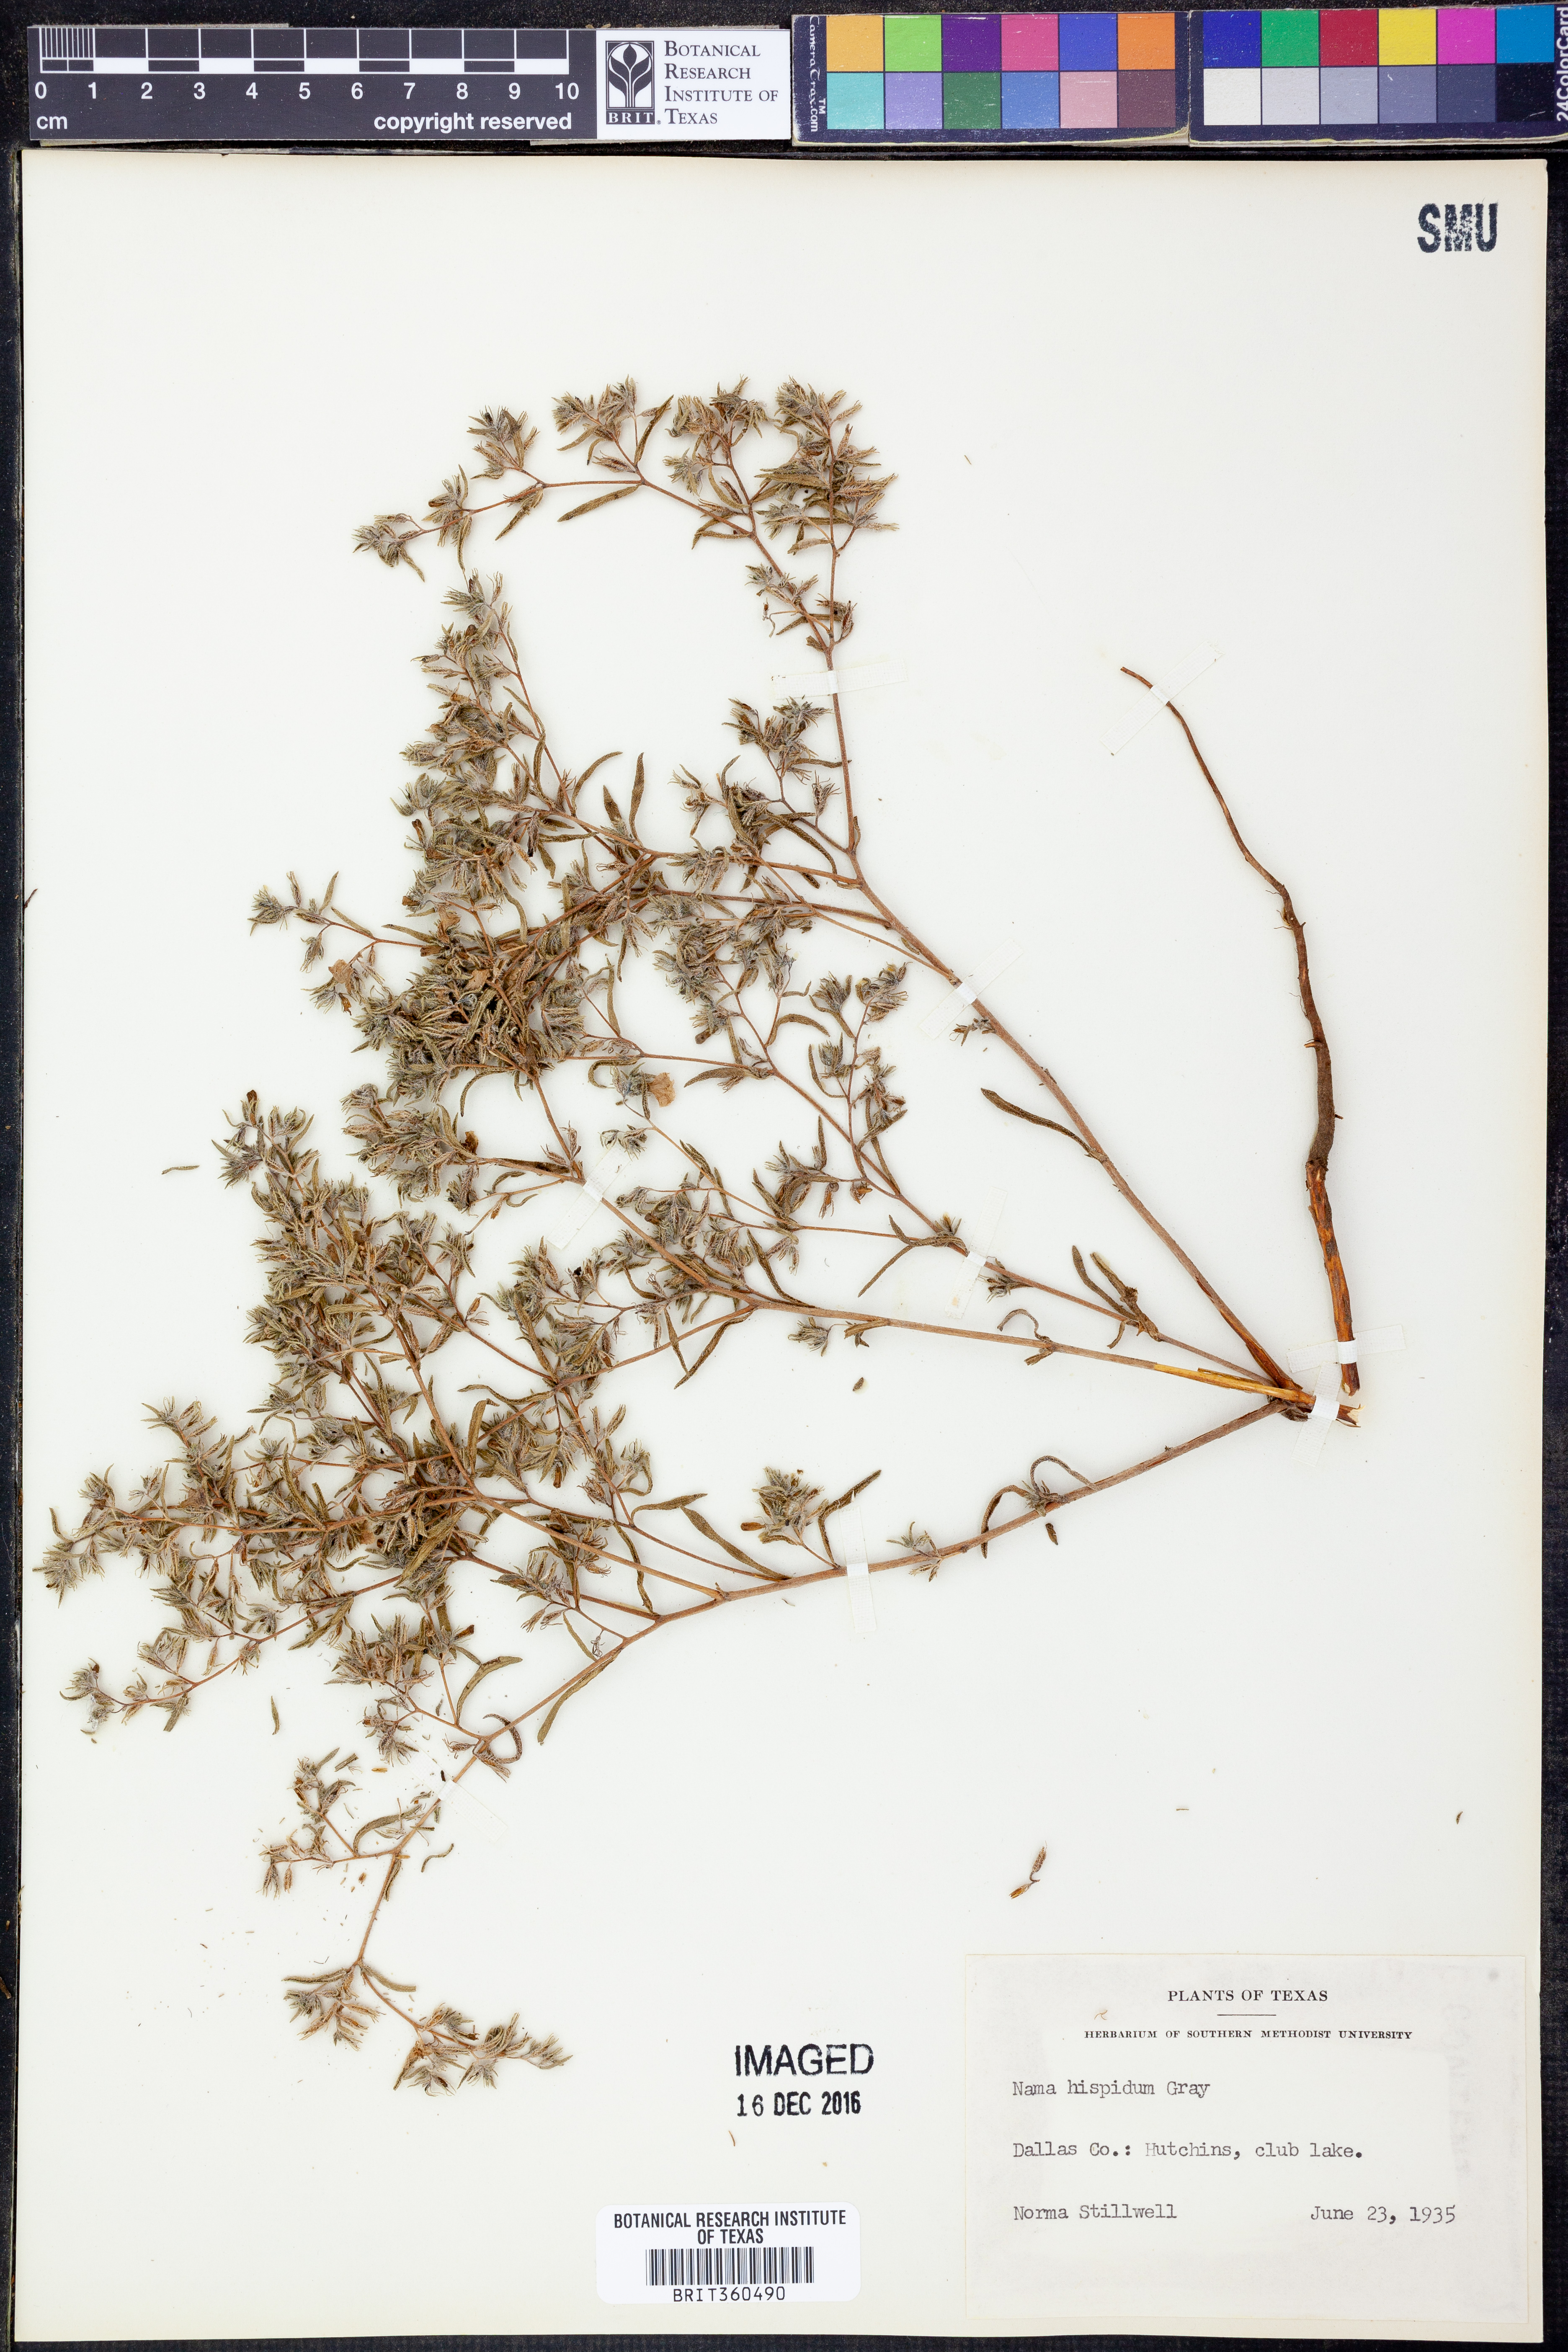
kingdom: Plantae
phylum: Tracheophyta
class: Magnoliopsida
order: Boraginales
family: Namaceae
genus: Nama
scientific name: Nama hispida
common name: Bristly nama
